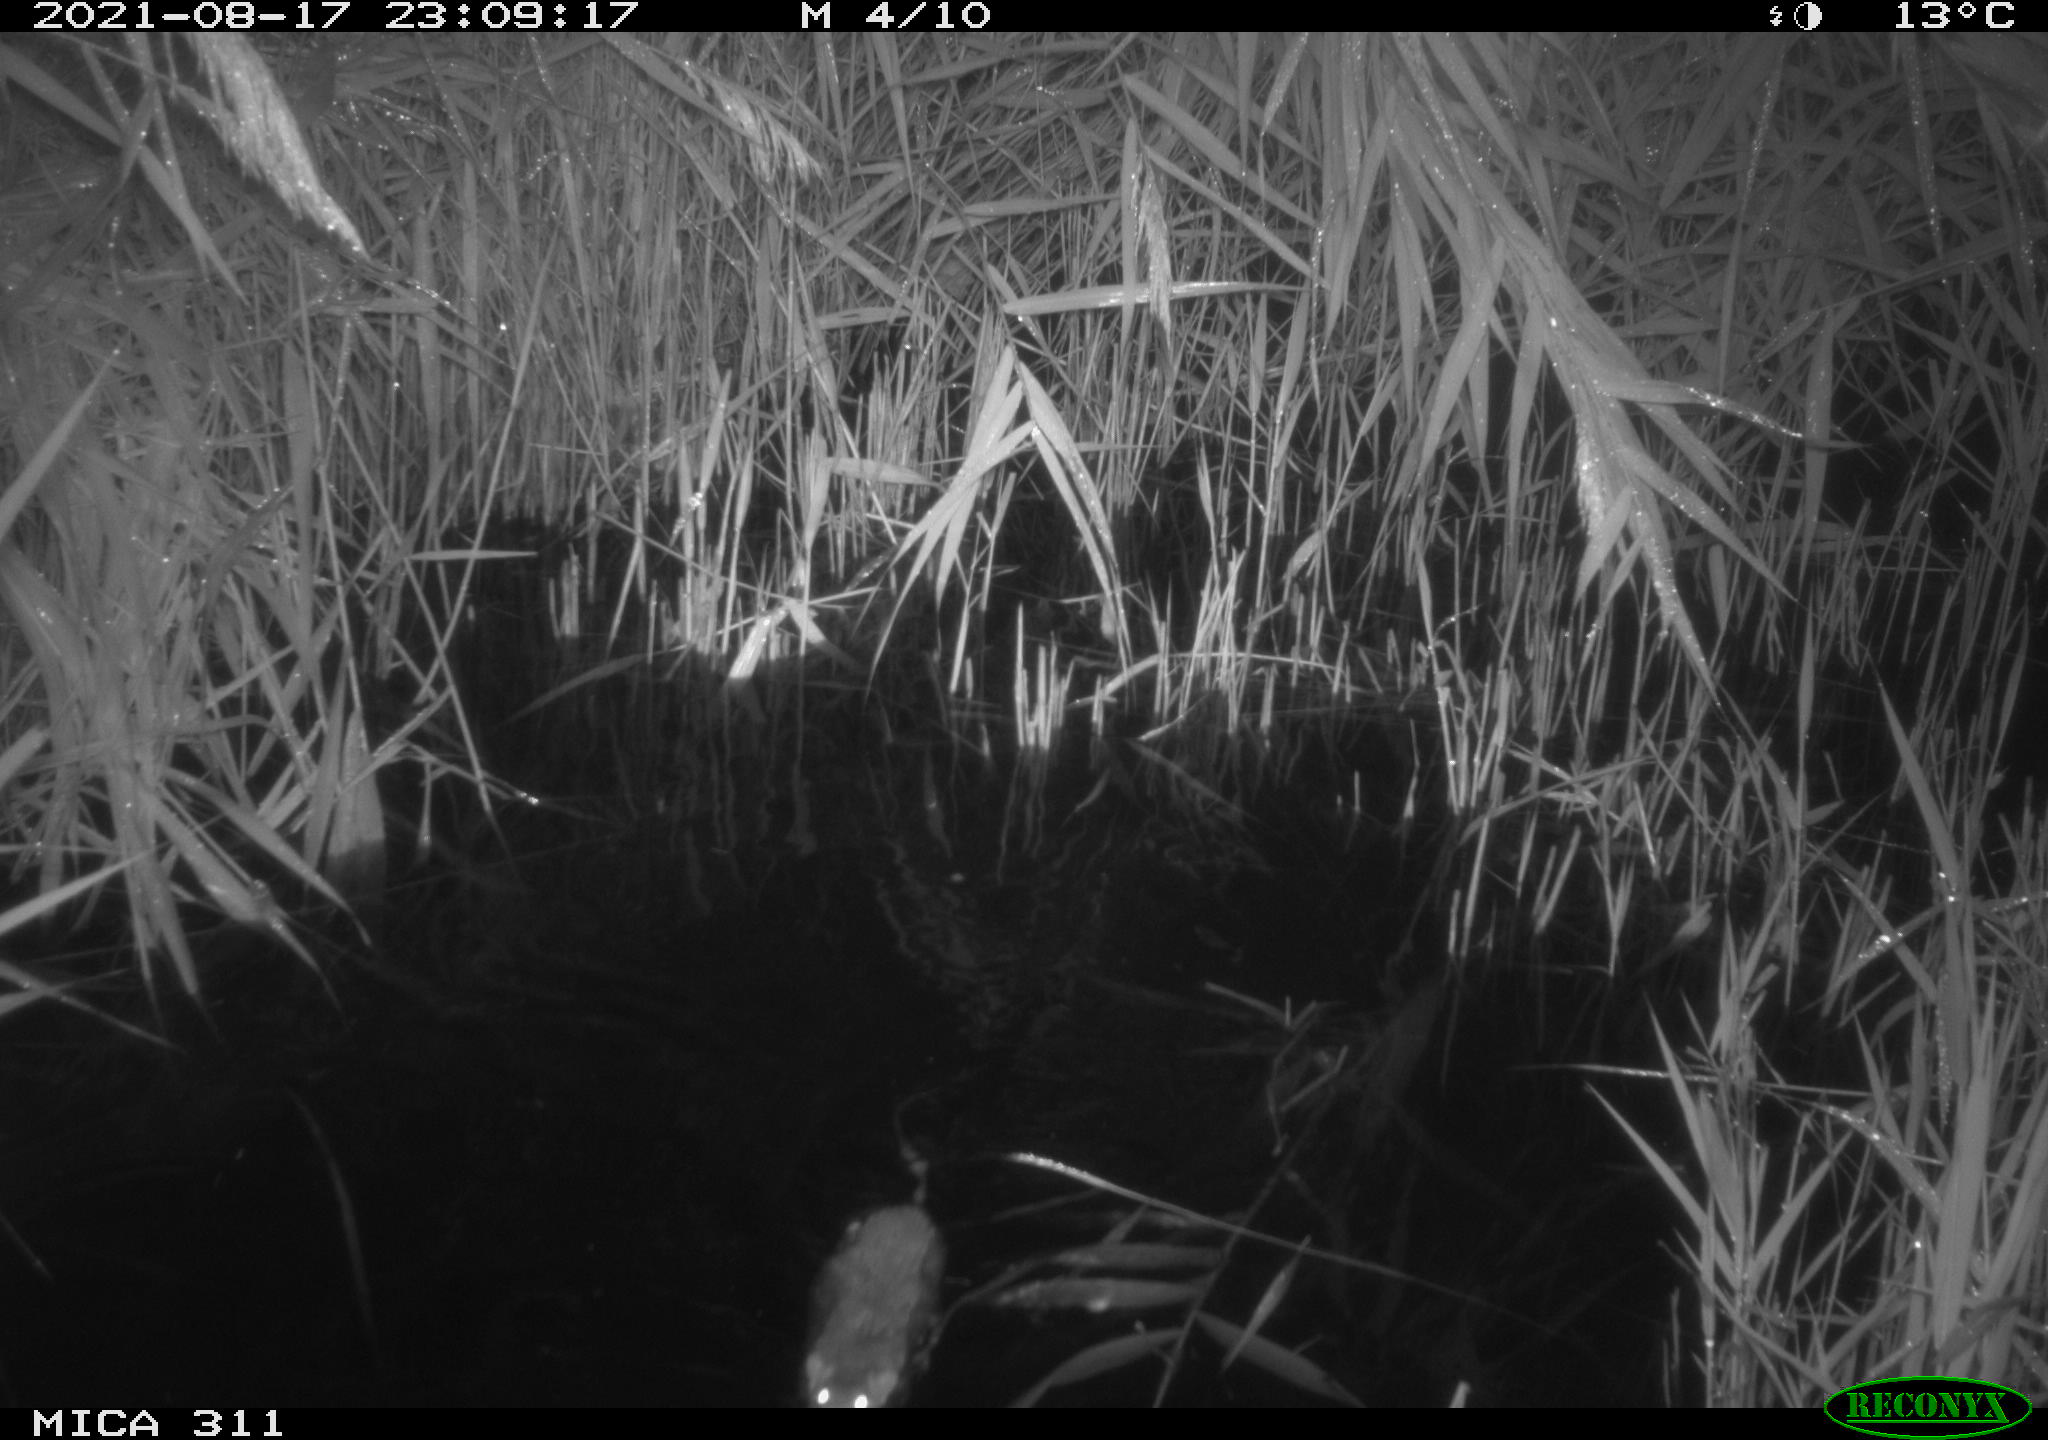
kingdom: Animalia
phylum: Chordata
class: Mammalia
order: Rodentia
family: Muridae
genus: Rattus
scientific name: Rattus norvegicus
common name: Brown rat
